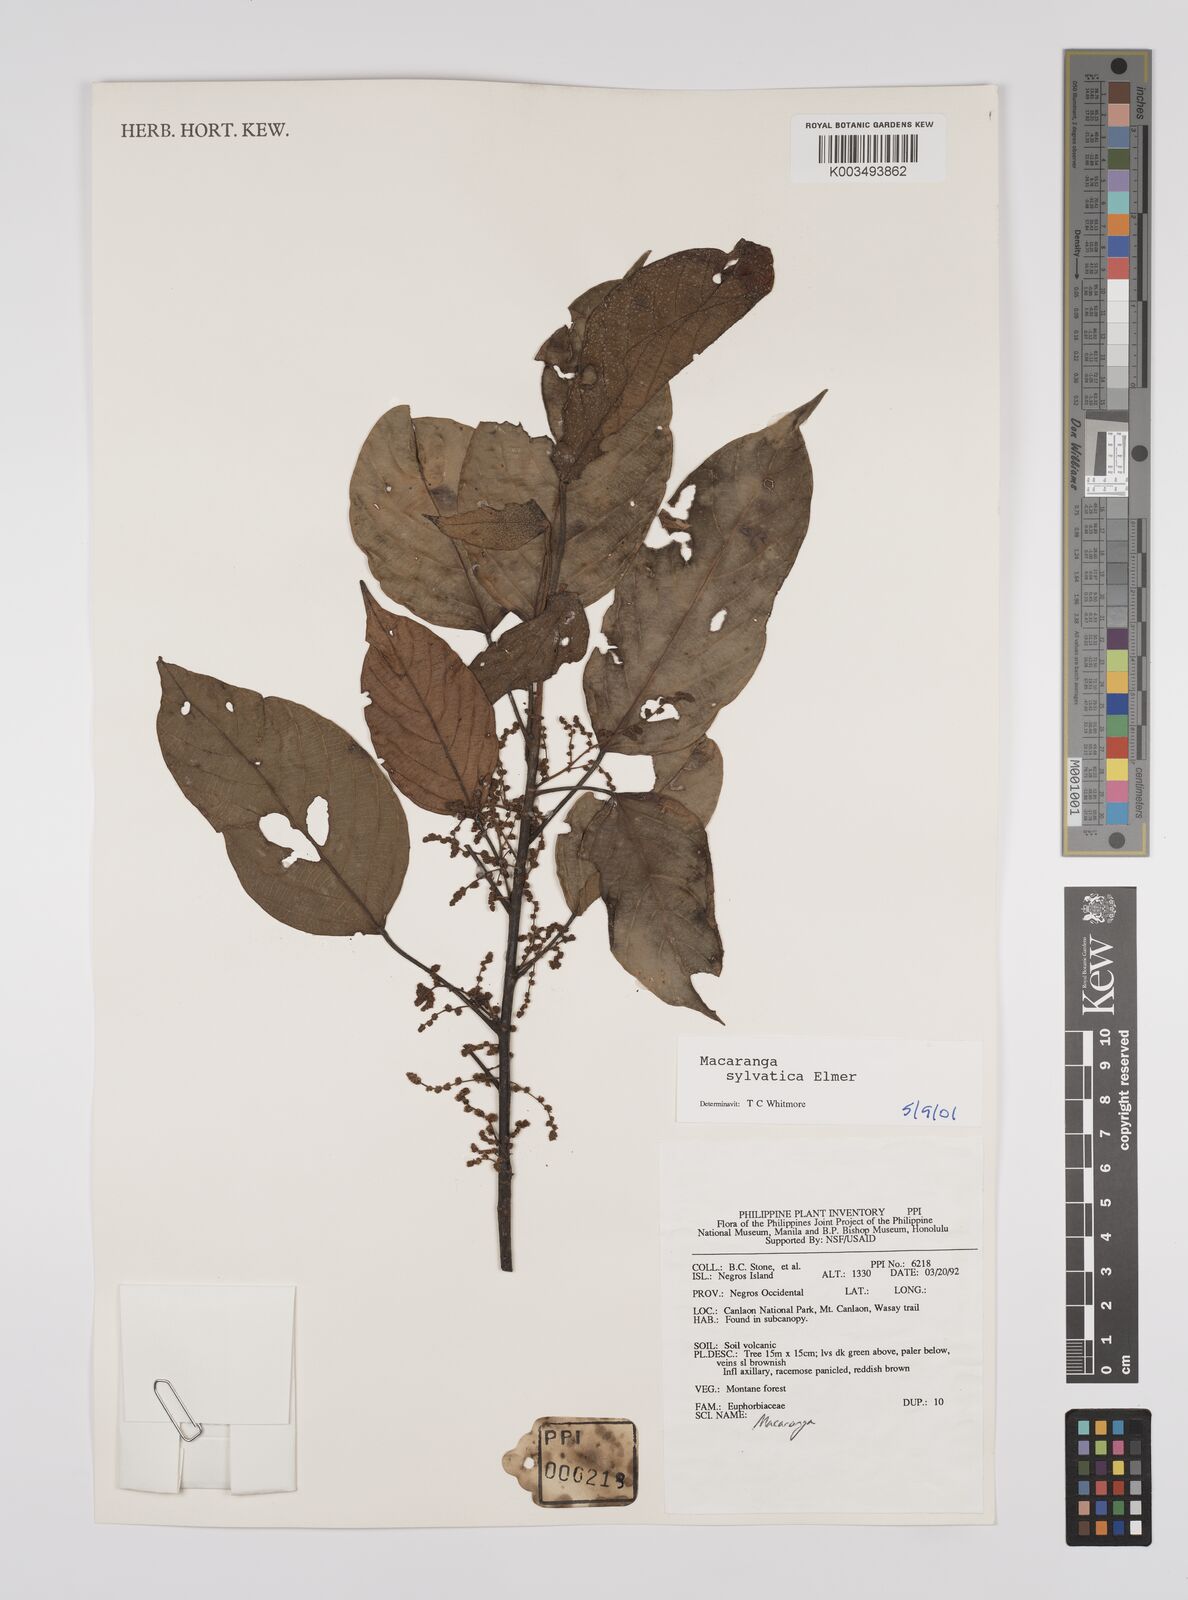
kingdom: Plantae
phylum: Tracheophyta
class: Magnoliopsida
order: Malpighiales
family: Euphorbiaceae
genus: Macaranga
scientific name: Macaranga sylvatica
